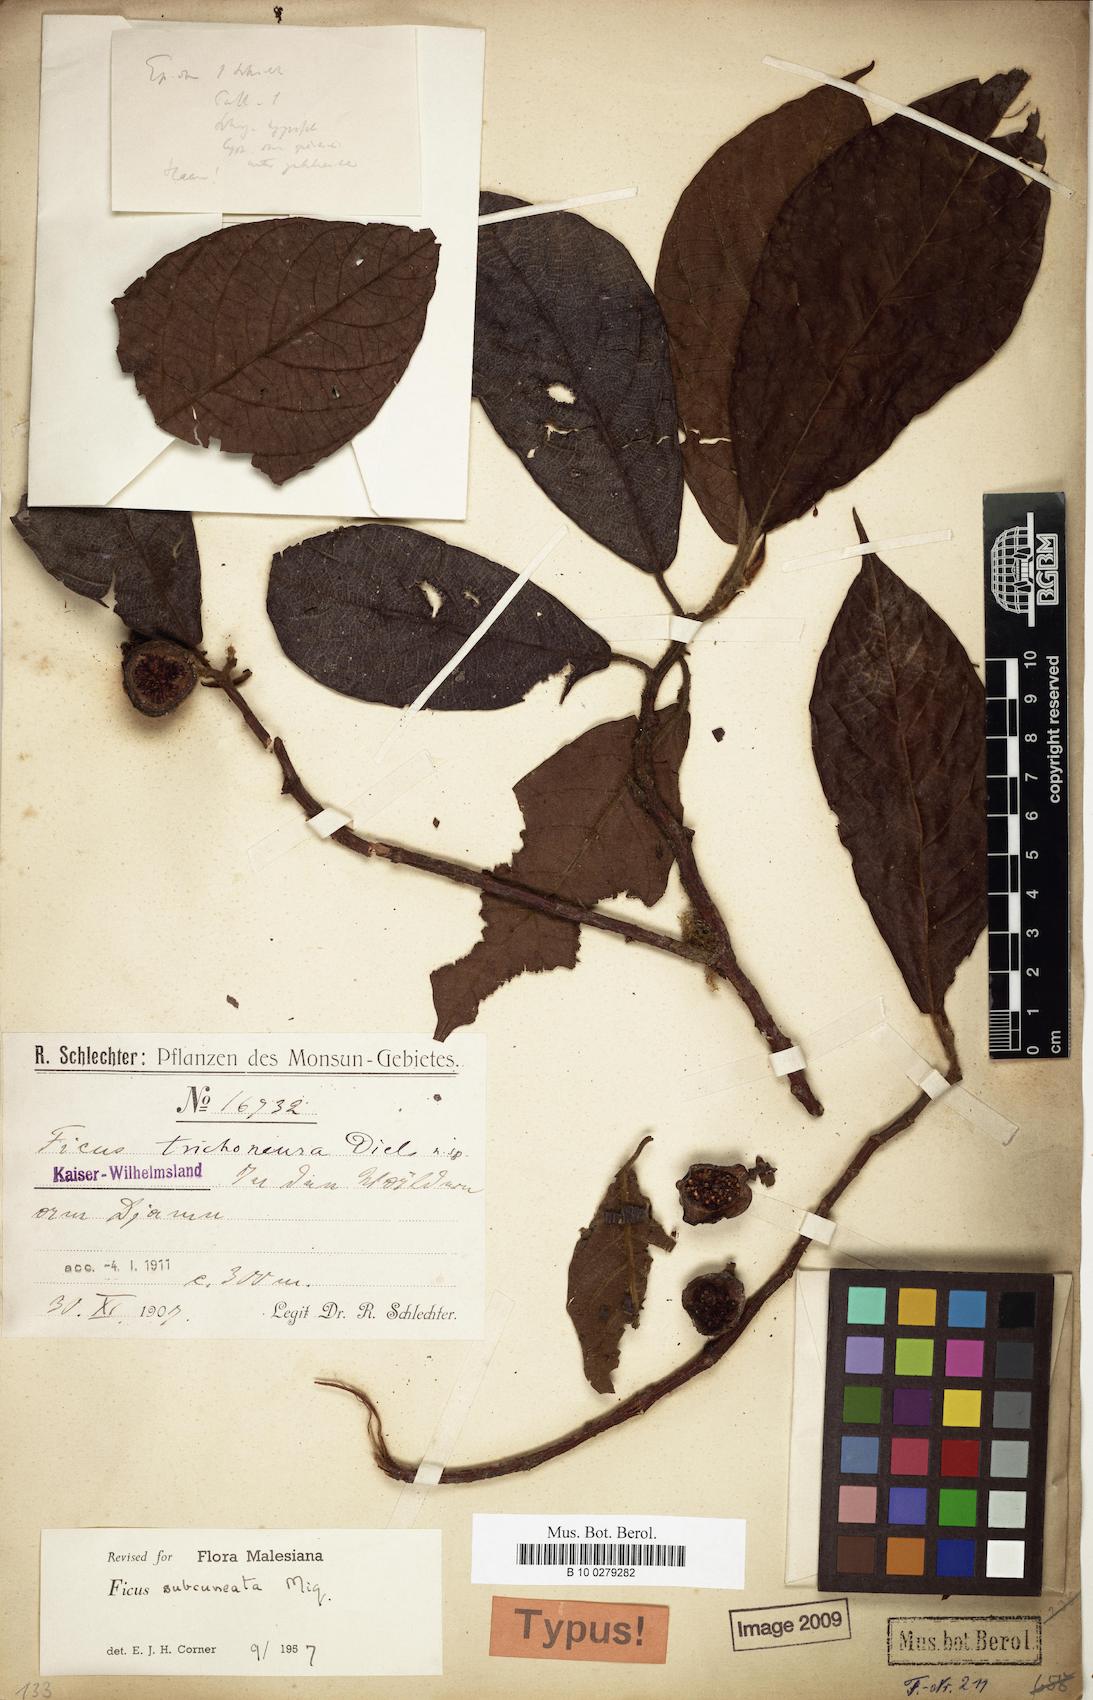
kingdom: Plantae
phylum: Tracheophyta
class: Magnoliopsida
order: Rosales
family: Moraceae
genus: Ficus
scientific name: Ficus subcuneata
